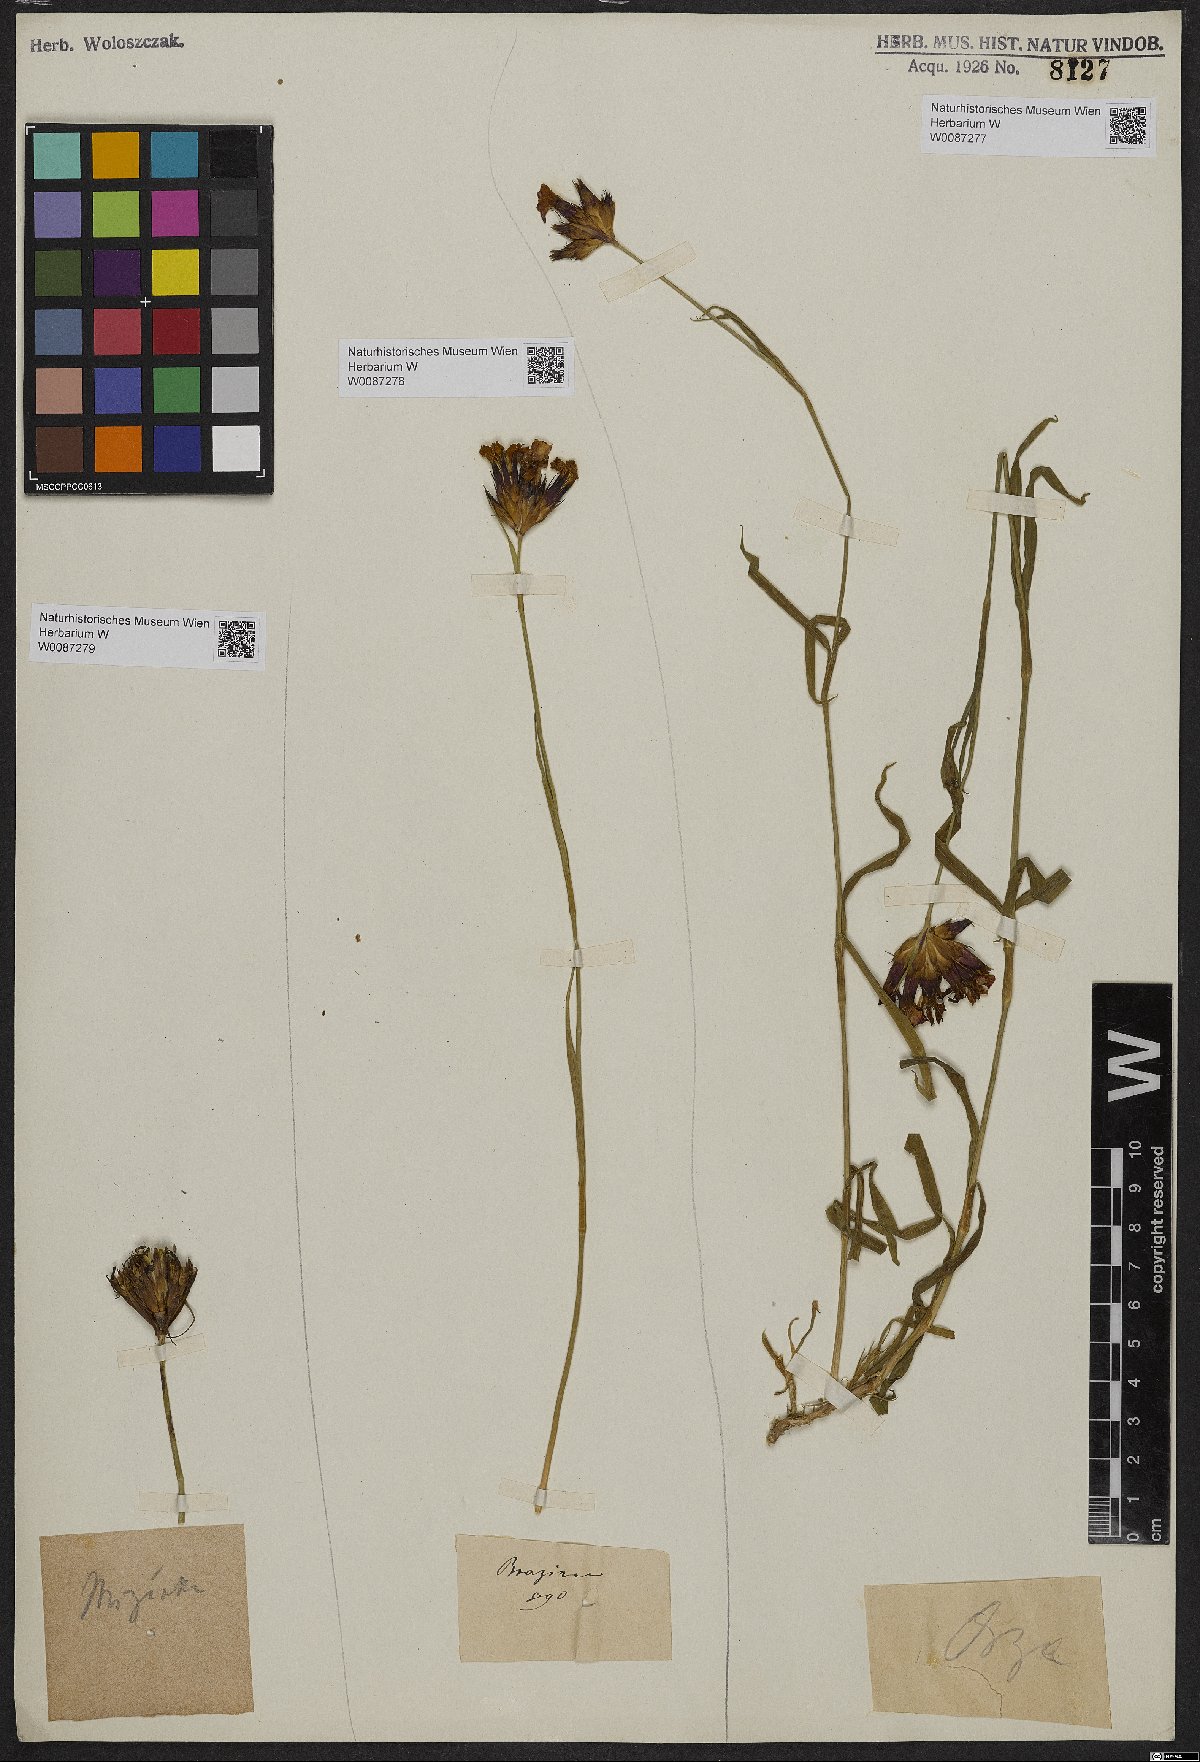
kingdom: Plantae
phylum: Tracheophyta
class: Magnoliopsida
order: Caryophyllales
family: Caryophyllaceae
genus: Dianthus
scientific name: Dianthus
